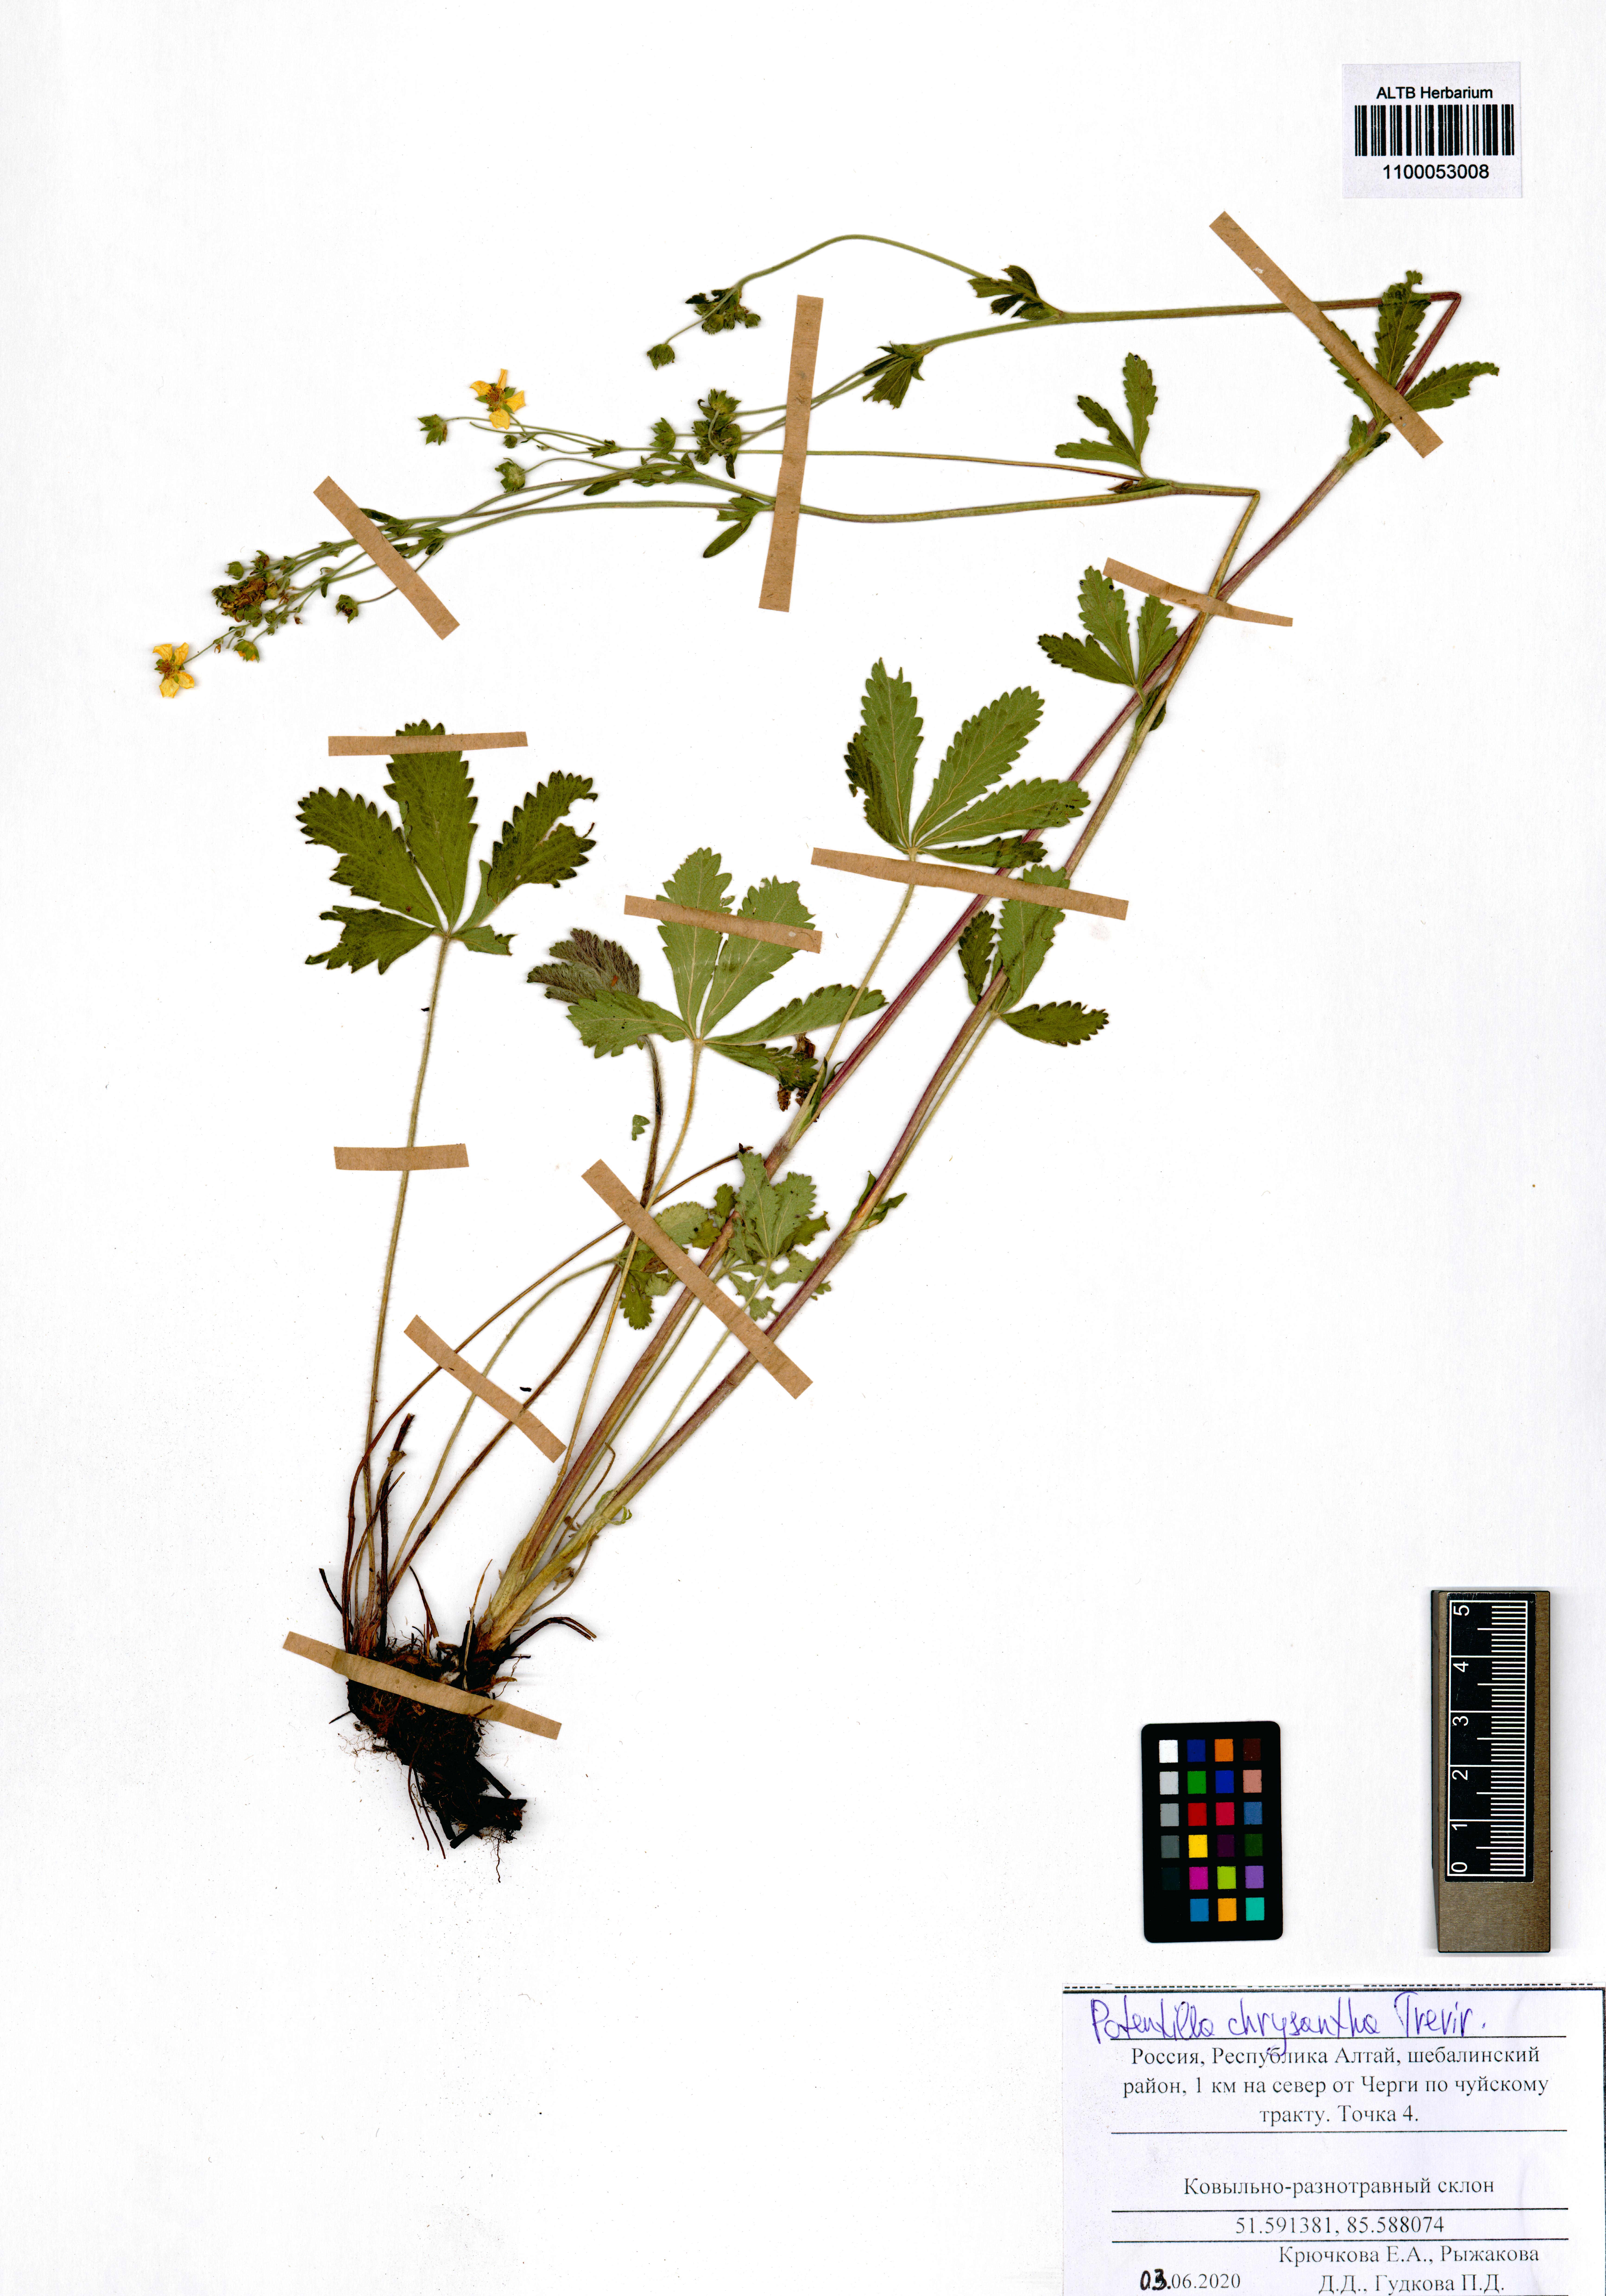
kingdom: Plantae
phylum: Tracheophyta
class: Magnoliopsida
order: Rosales
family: Rosaceae
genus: Potentilla
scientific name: Potentilla chrysantha
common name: Thuringian cinquefoil
